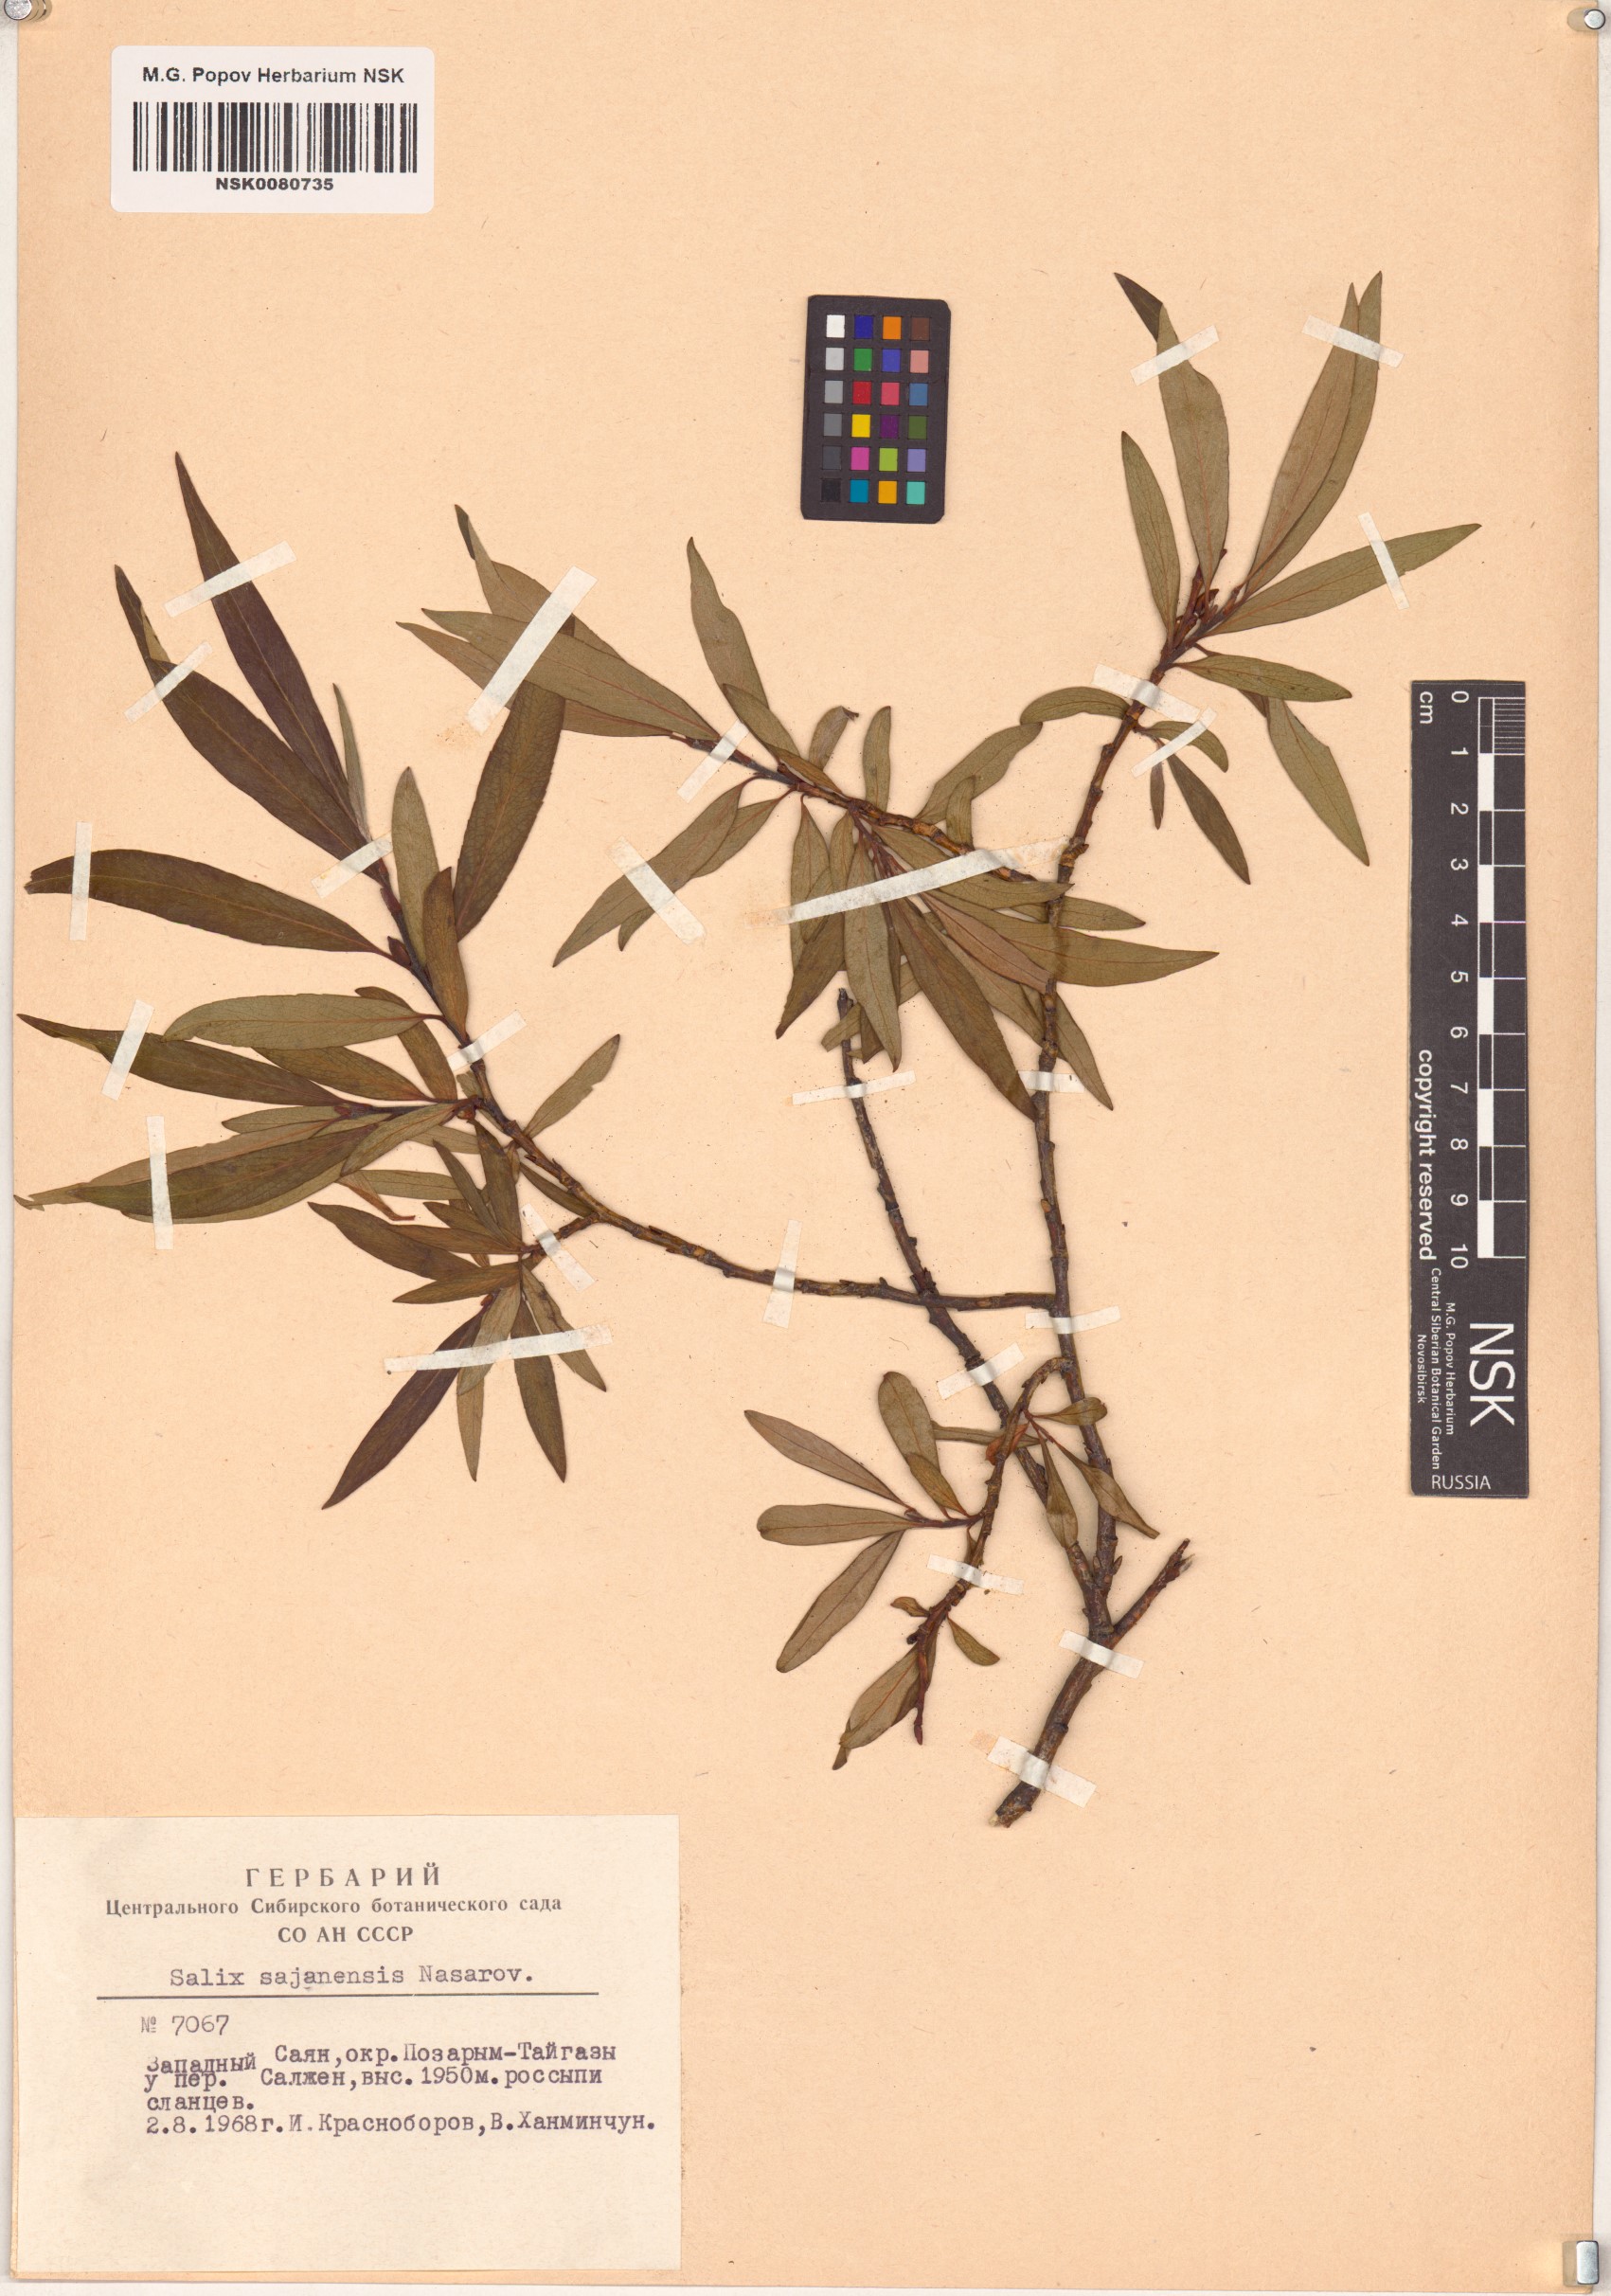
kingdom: Plantae
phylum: Tracheophyta
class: Magnoliopsida
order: Malpighiales
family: Salicaceae
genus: Salix
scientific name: Salix sajanensis
